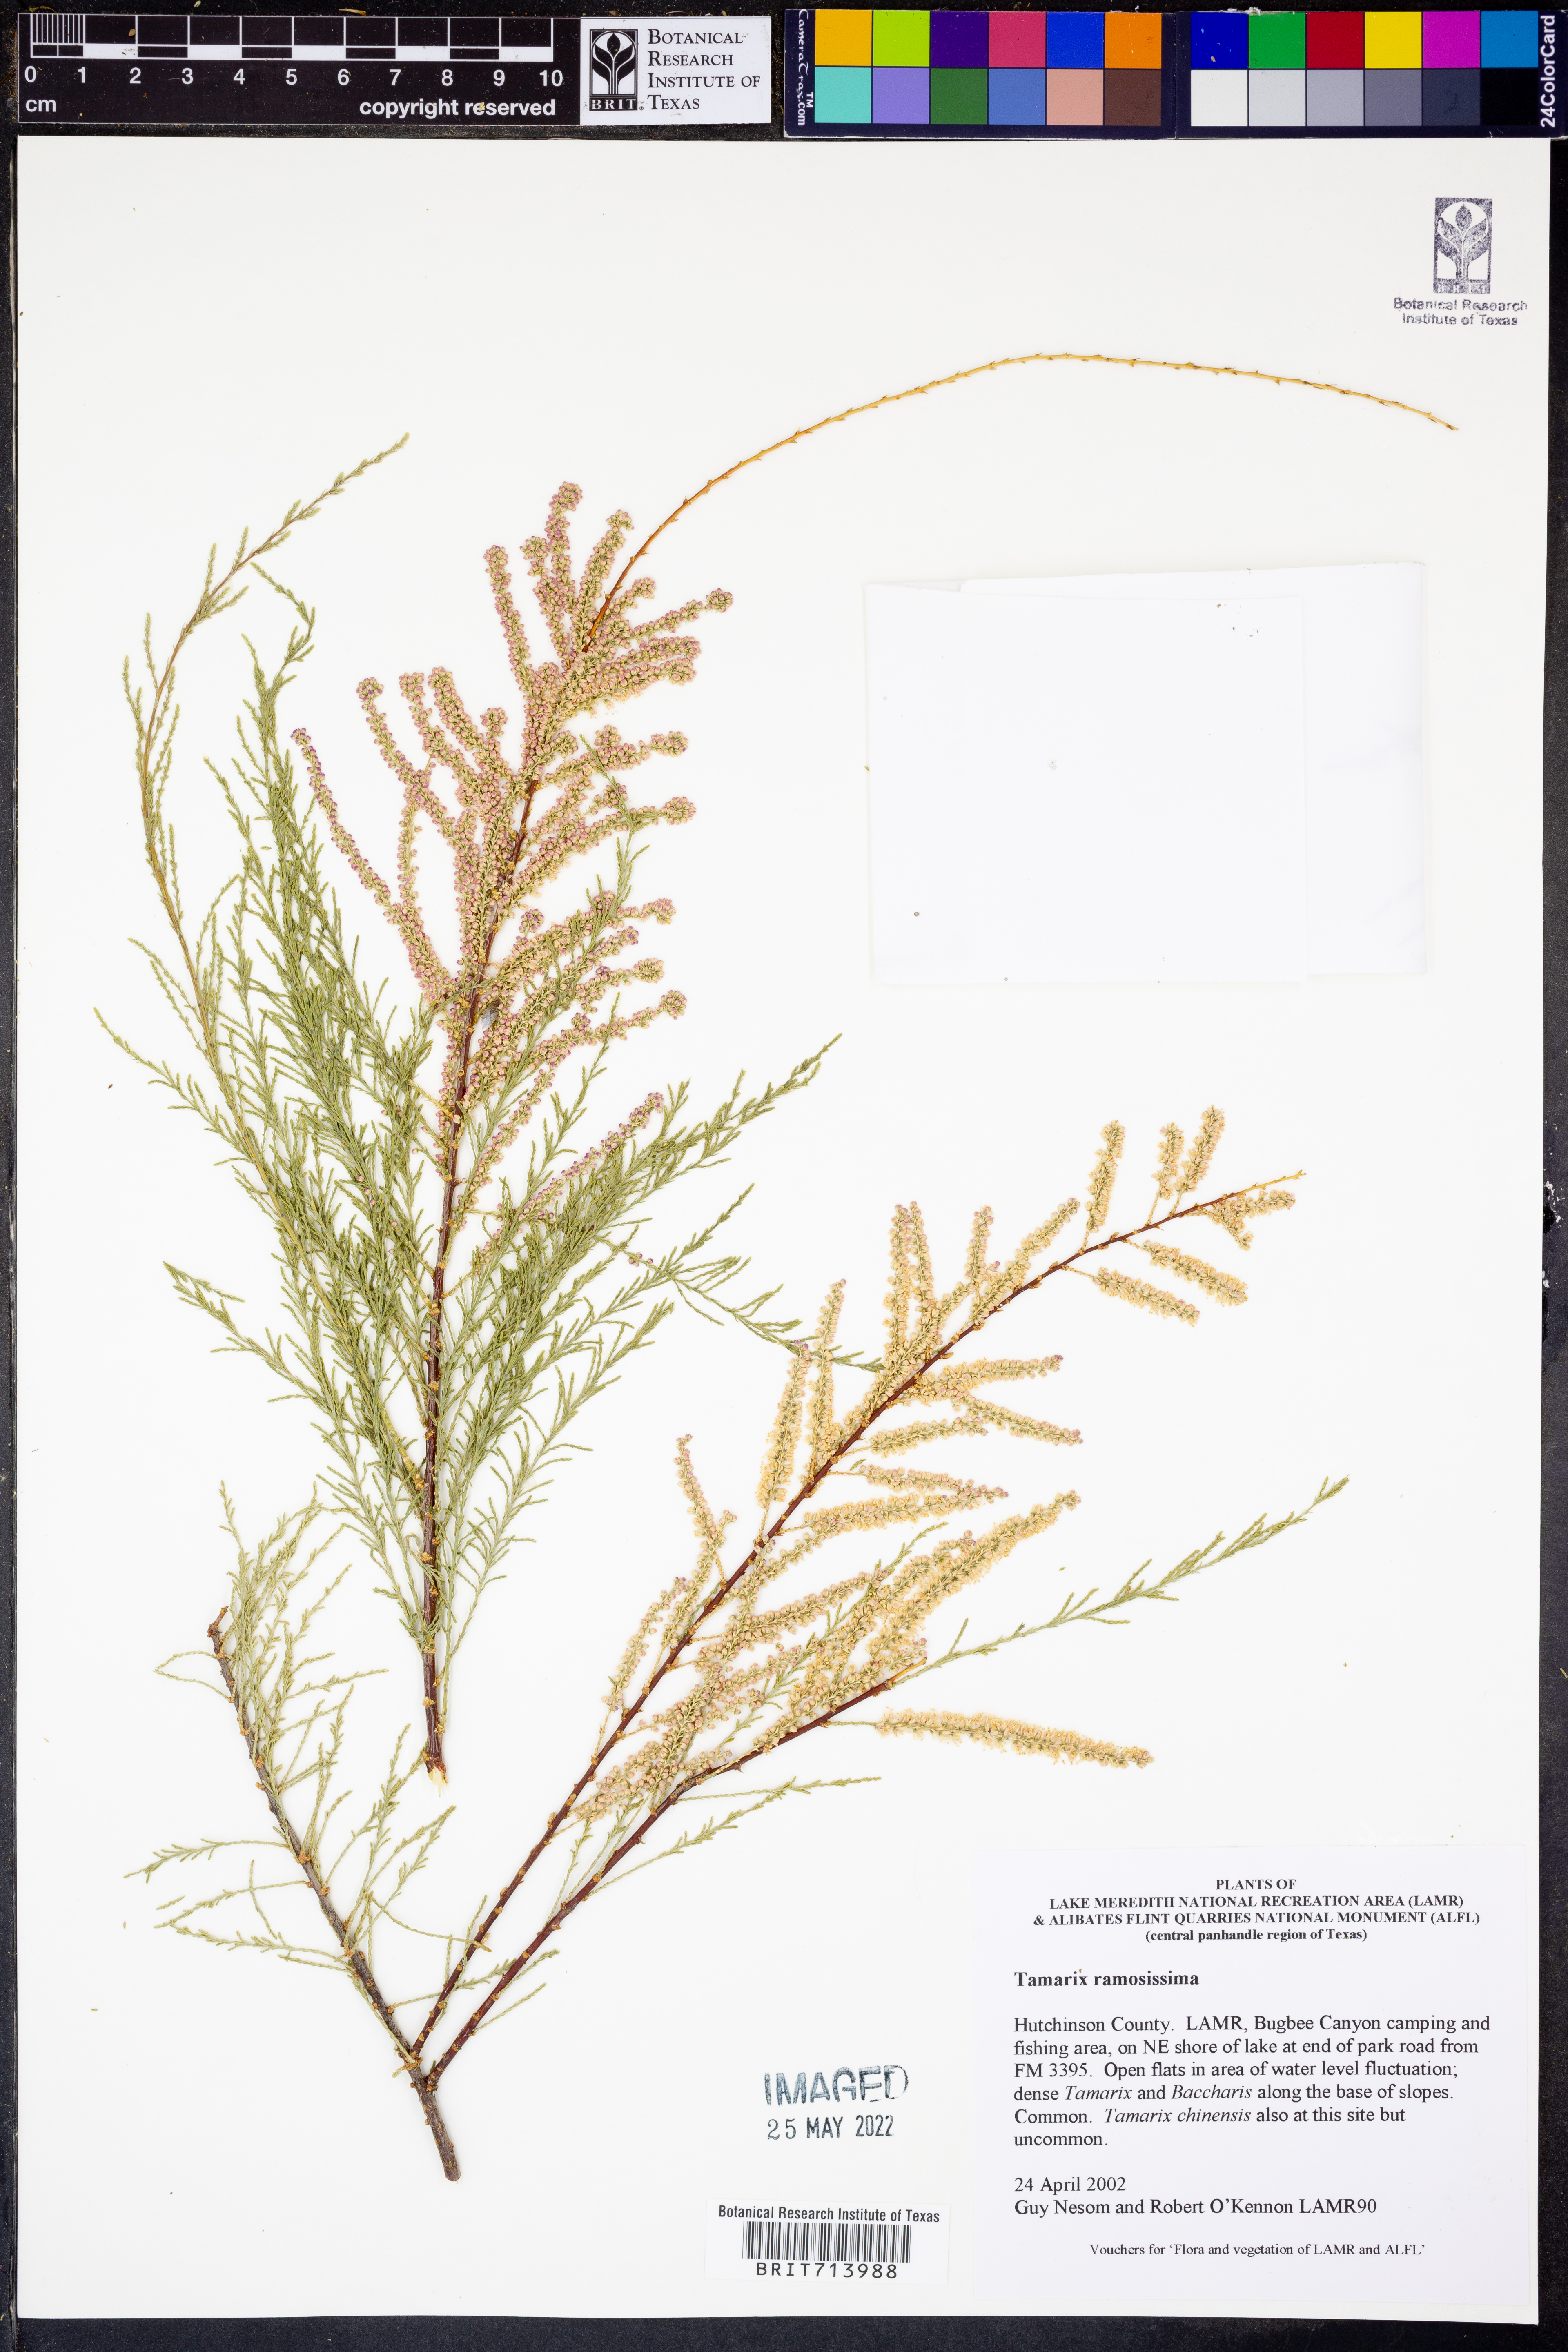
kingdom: Plantae
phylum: Tracheophyta
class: Magnoliopsida
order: Caryophyllales
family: Tamaricaceae
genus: Tamarix
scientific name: Tamarix ramosissima
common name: Pink tamarisk
